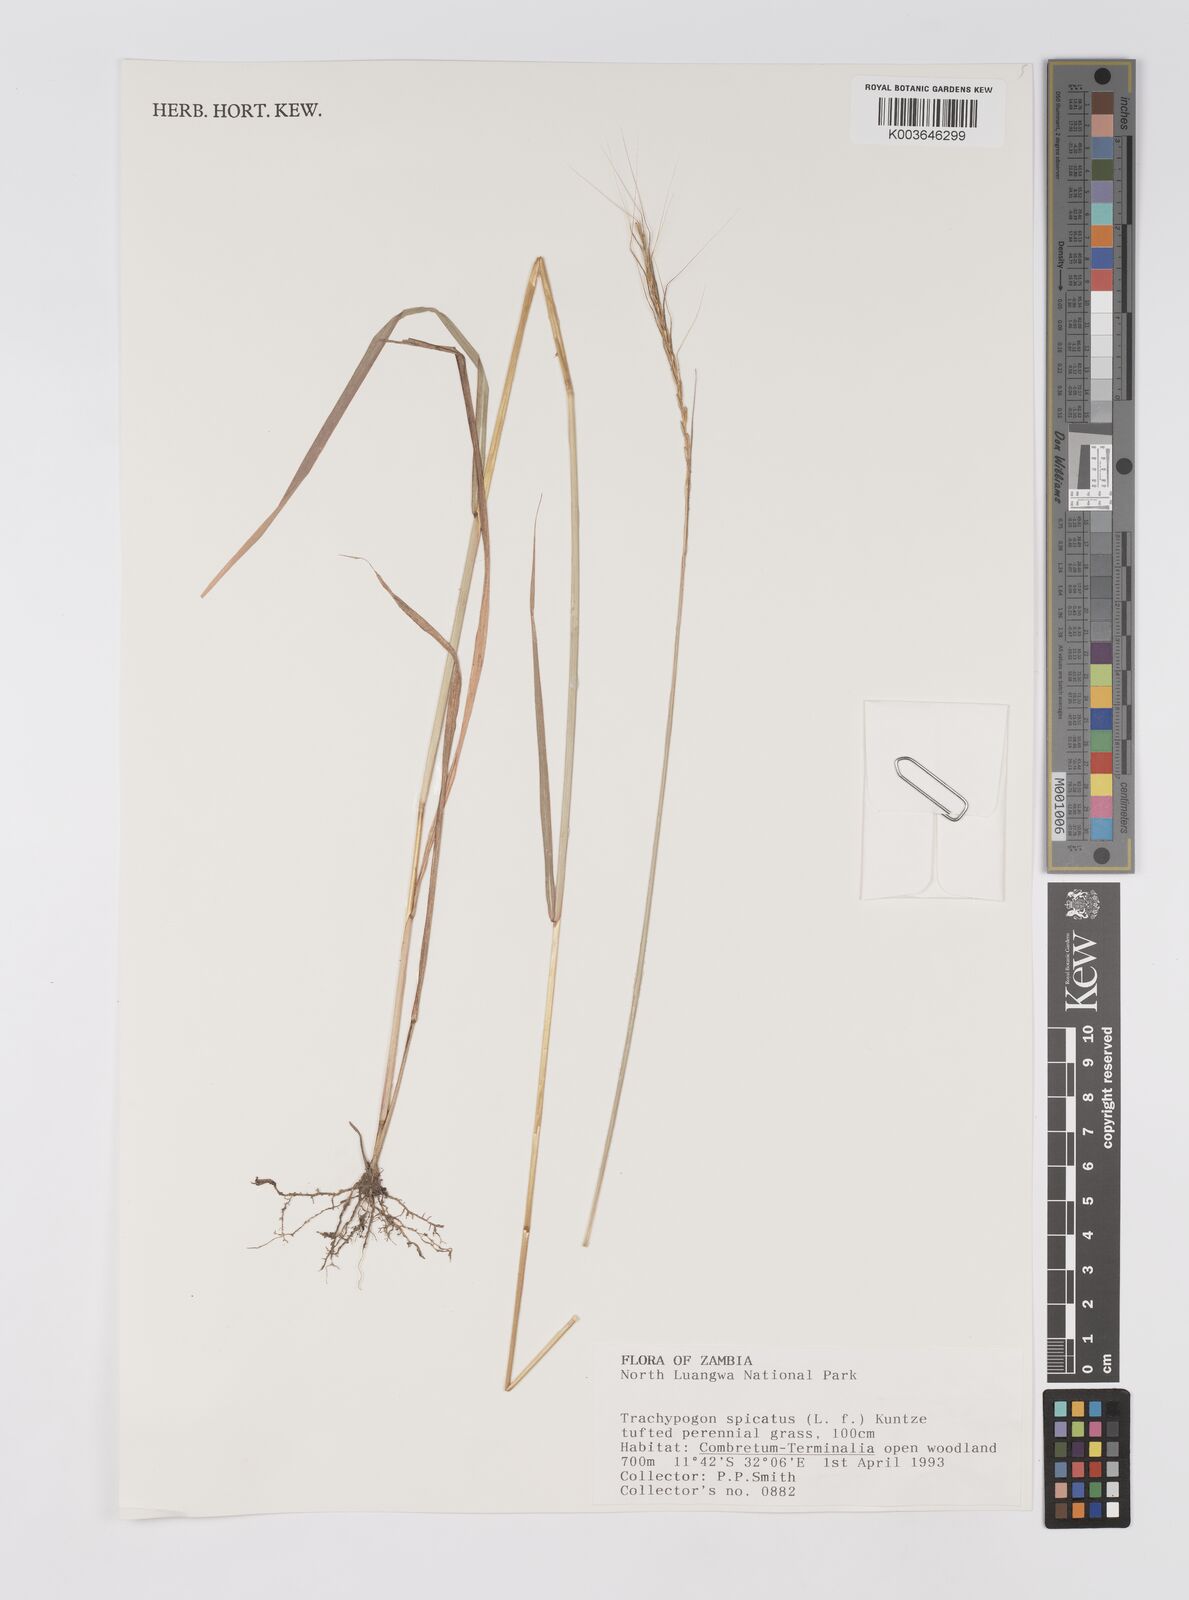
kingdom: Plantae
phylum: Tracheophyta
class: Liliopsida
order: Poales
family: Poaceae
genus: Trachypogon
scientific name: Trachypogon spicatus
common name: Crinkle-awn
